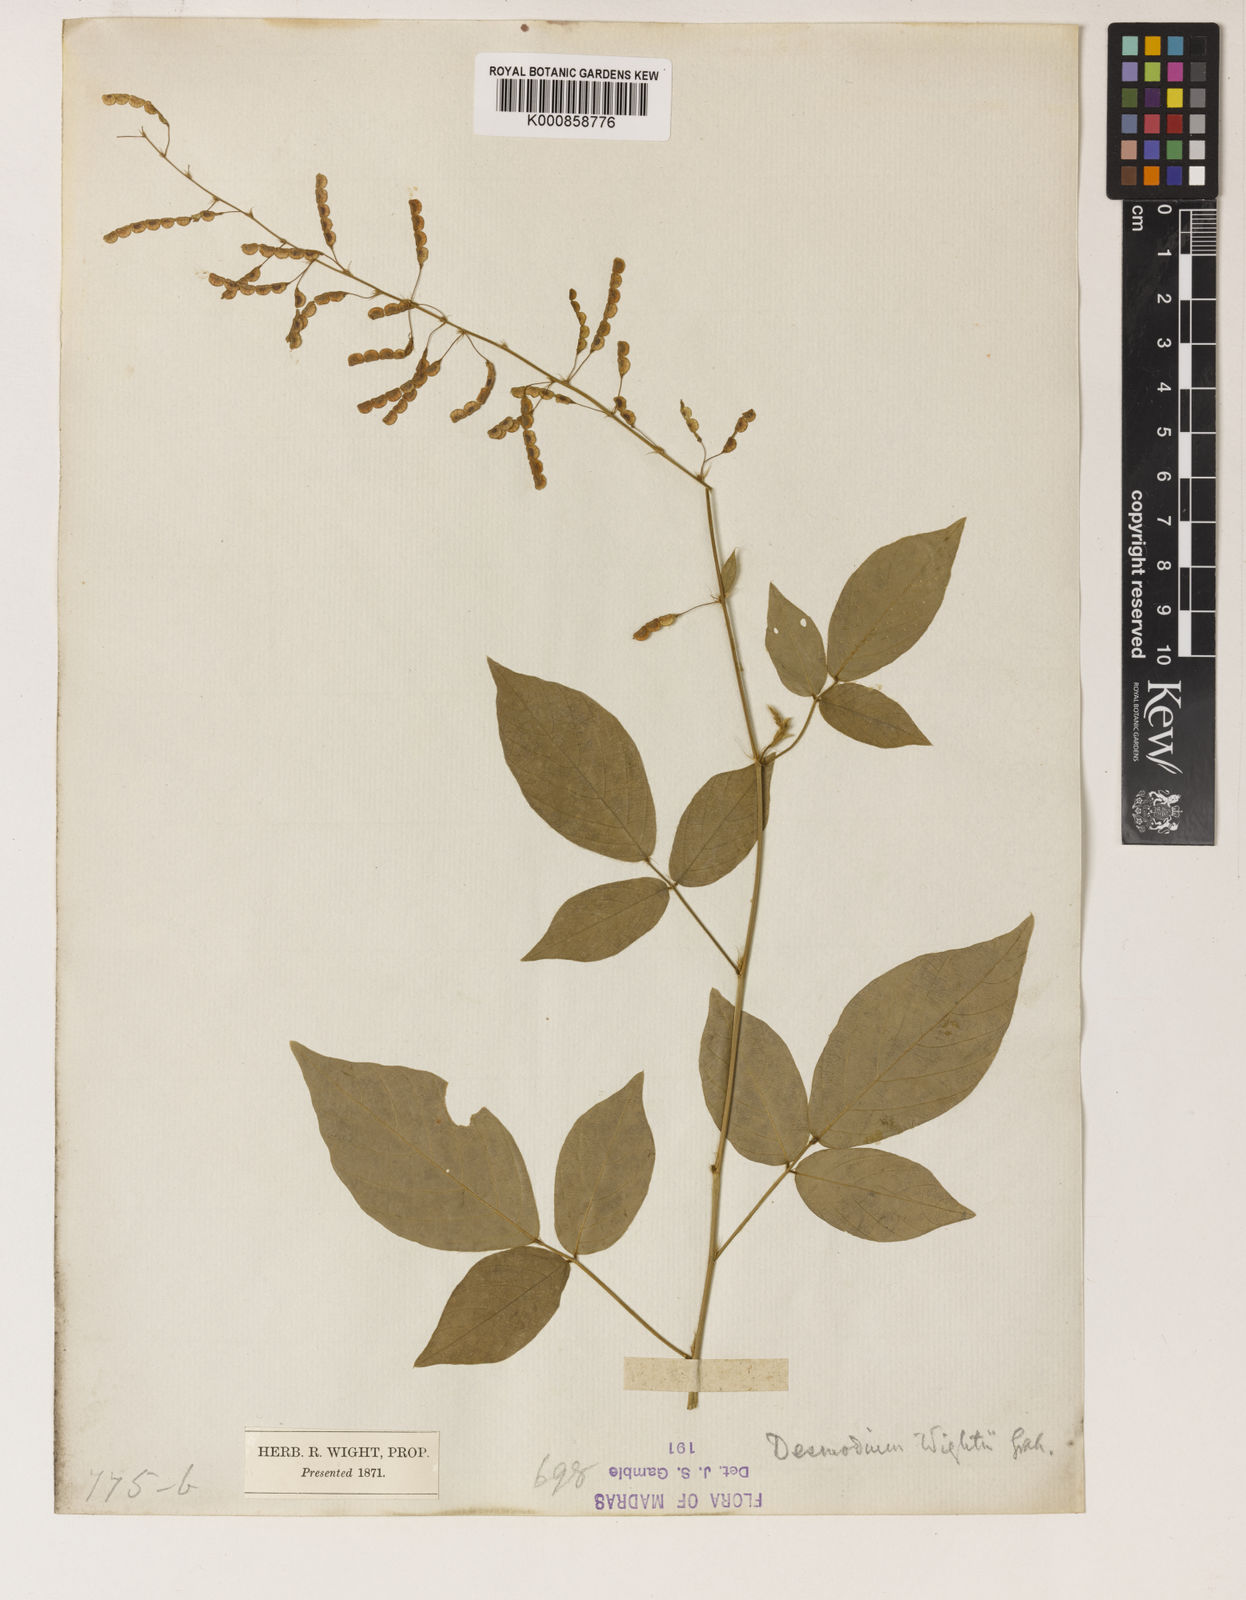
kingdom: Plantae
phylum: Tracheophyta
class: Magnoliopsida
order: Fabales
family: Fabaceae
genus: Pleurolobus
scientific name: Pleurolobus pryonii
